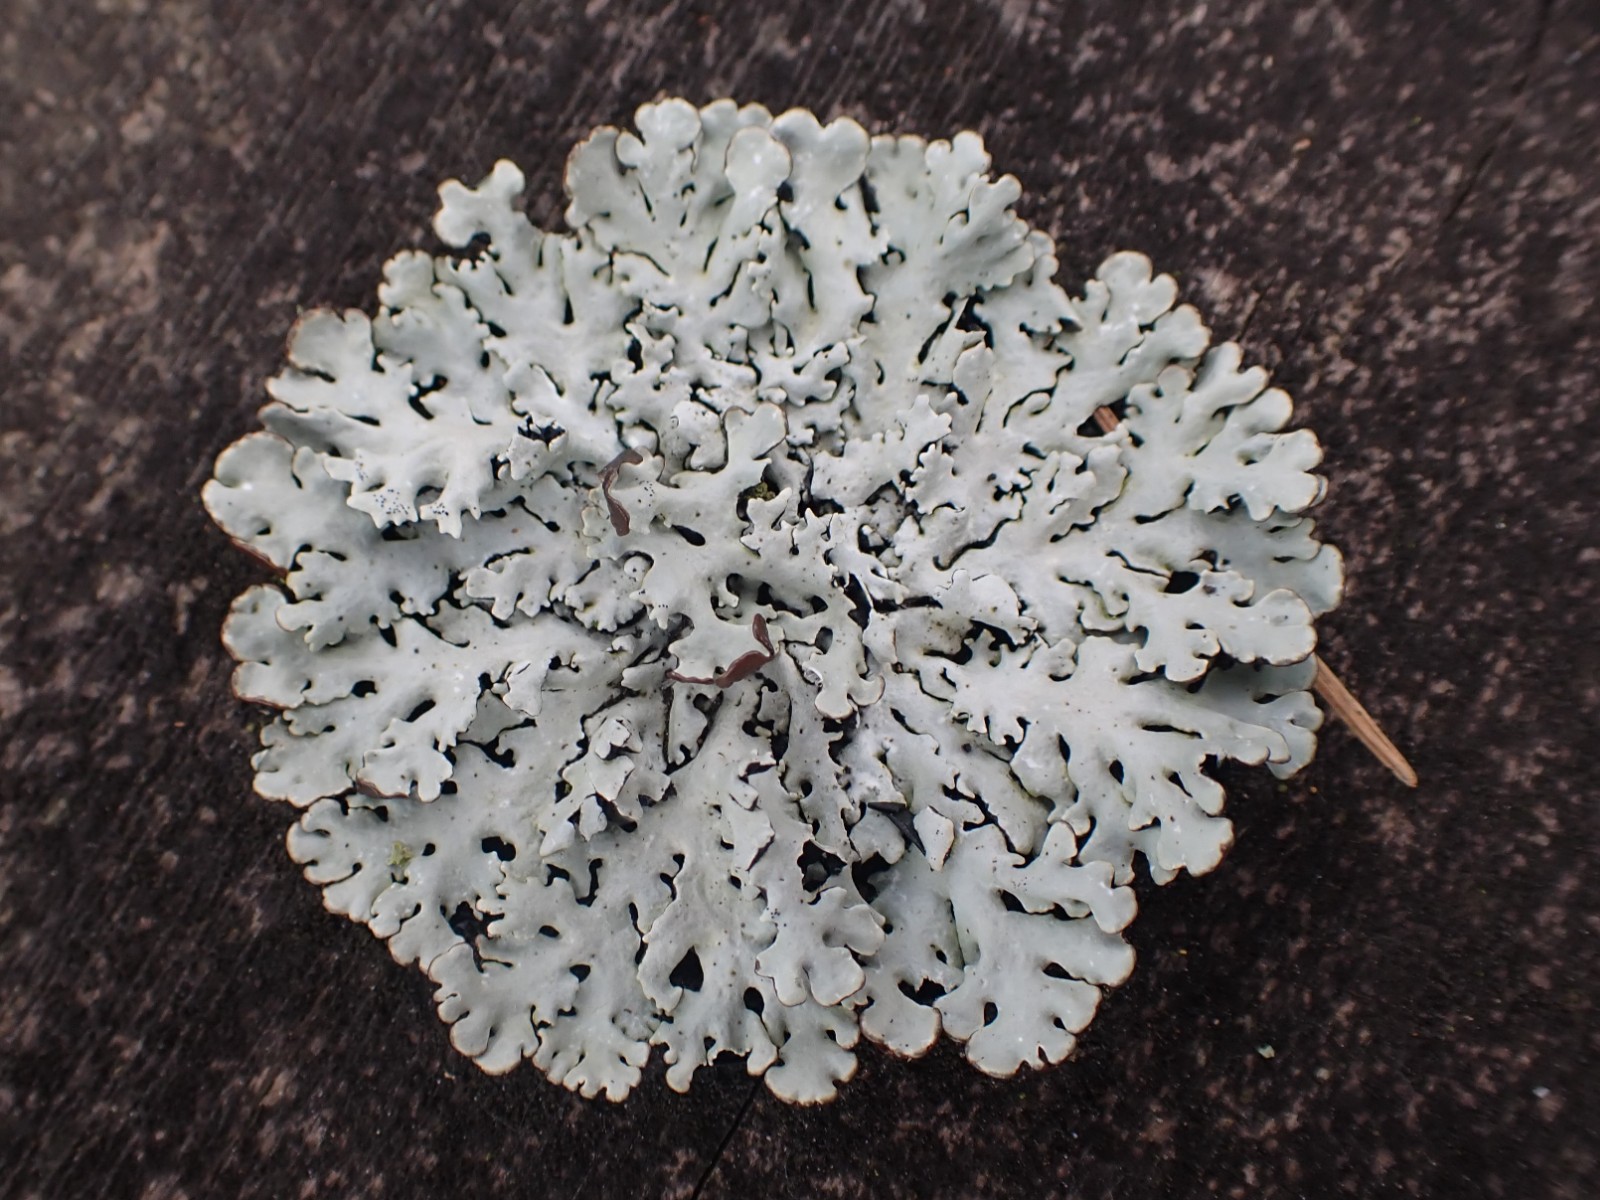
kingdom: Fungi
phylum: Ascomycota
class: Lecanoromycetes
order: Lecanorales
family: Parmeliaceae
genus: Hypogymnia
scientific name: Hypogymnia physodes
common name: almindelig kvistlav
